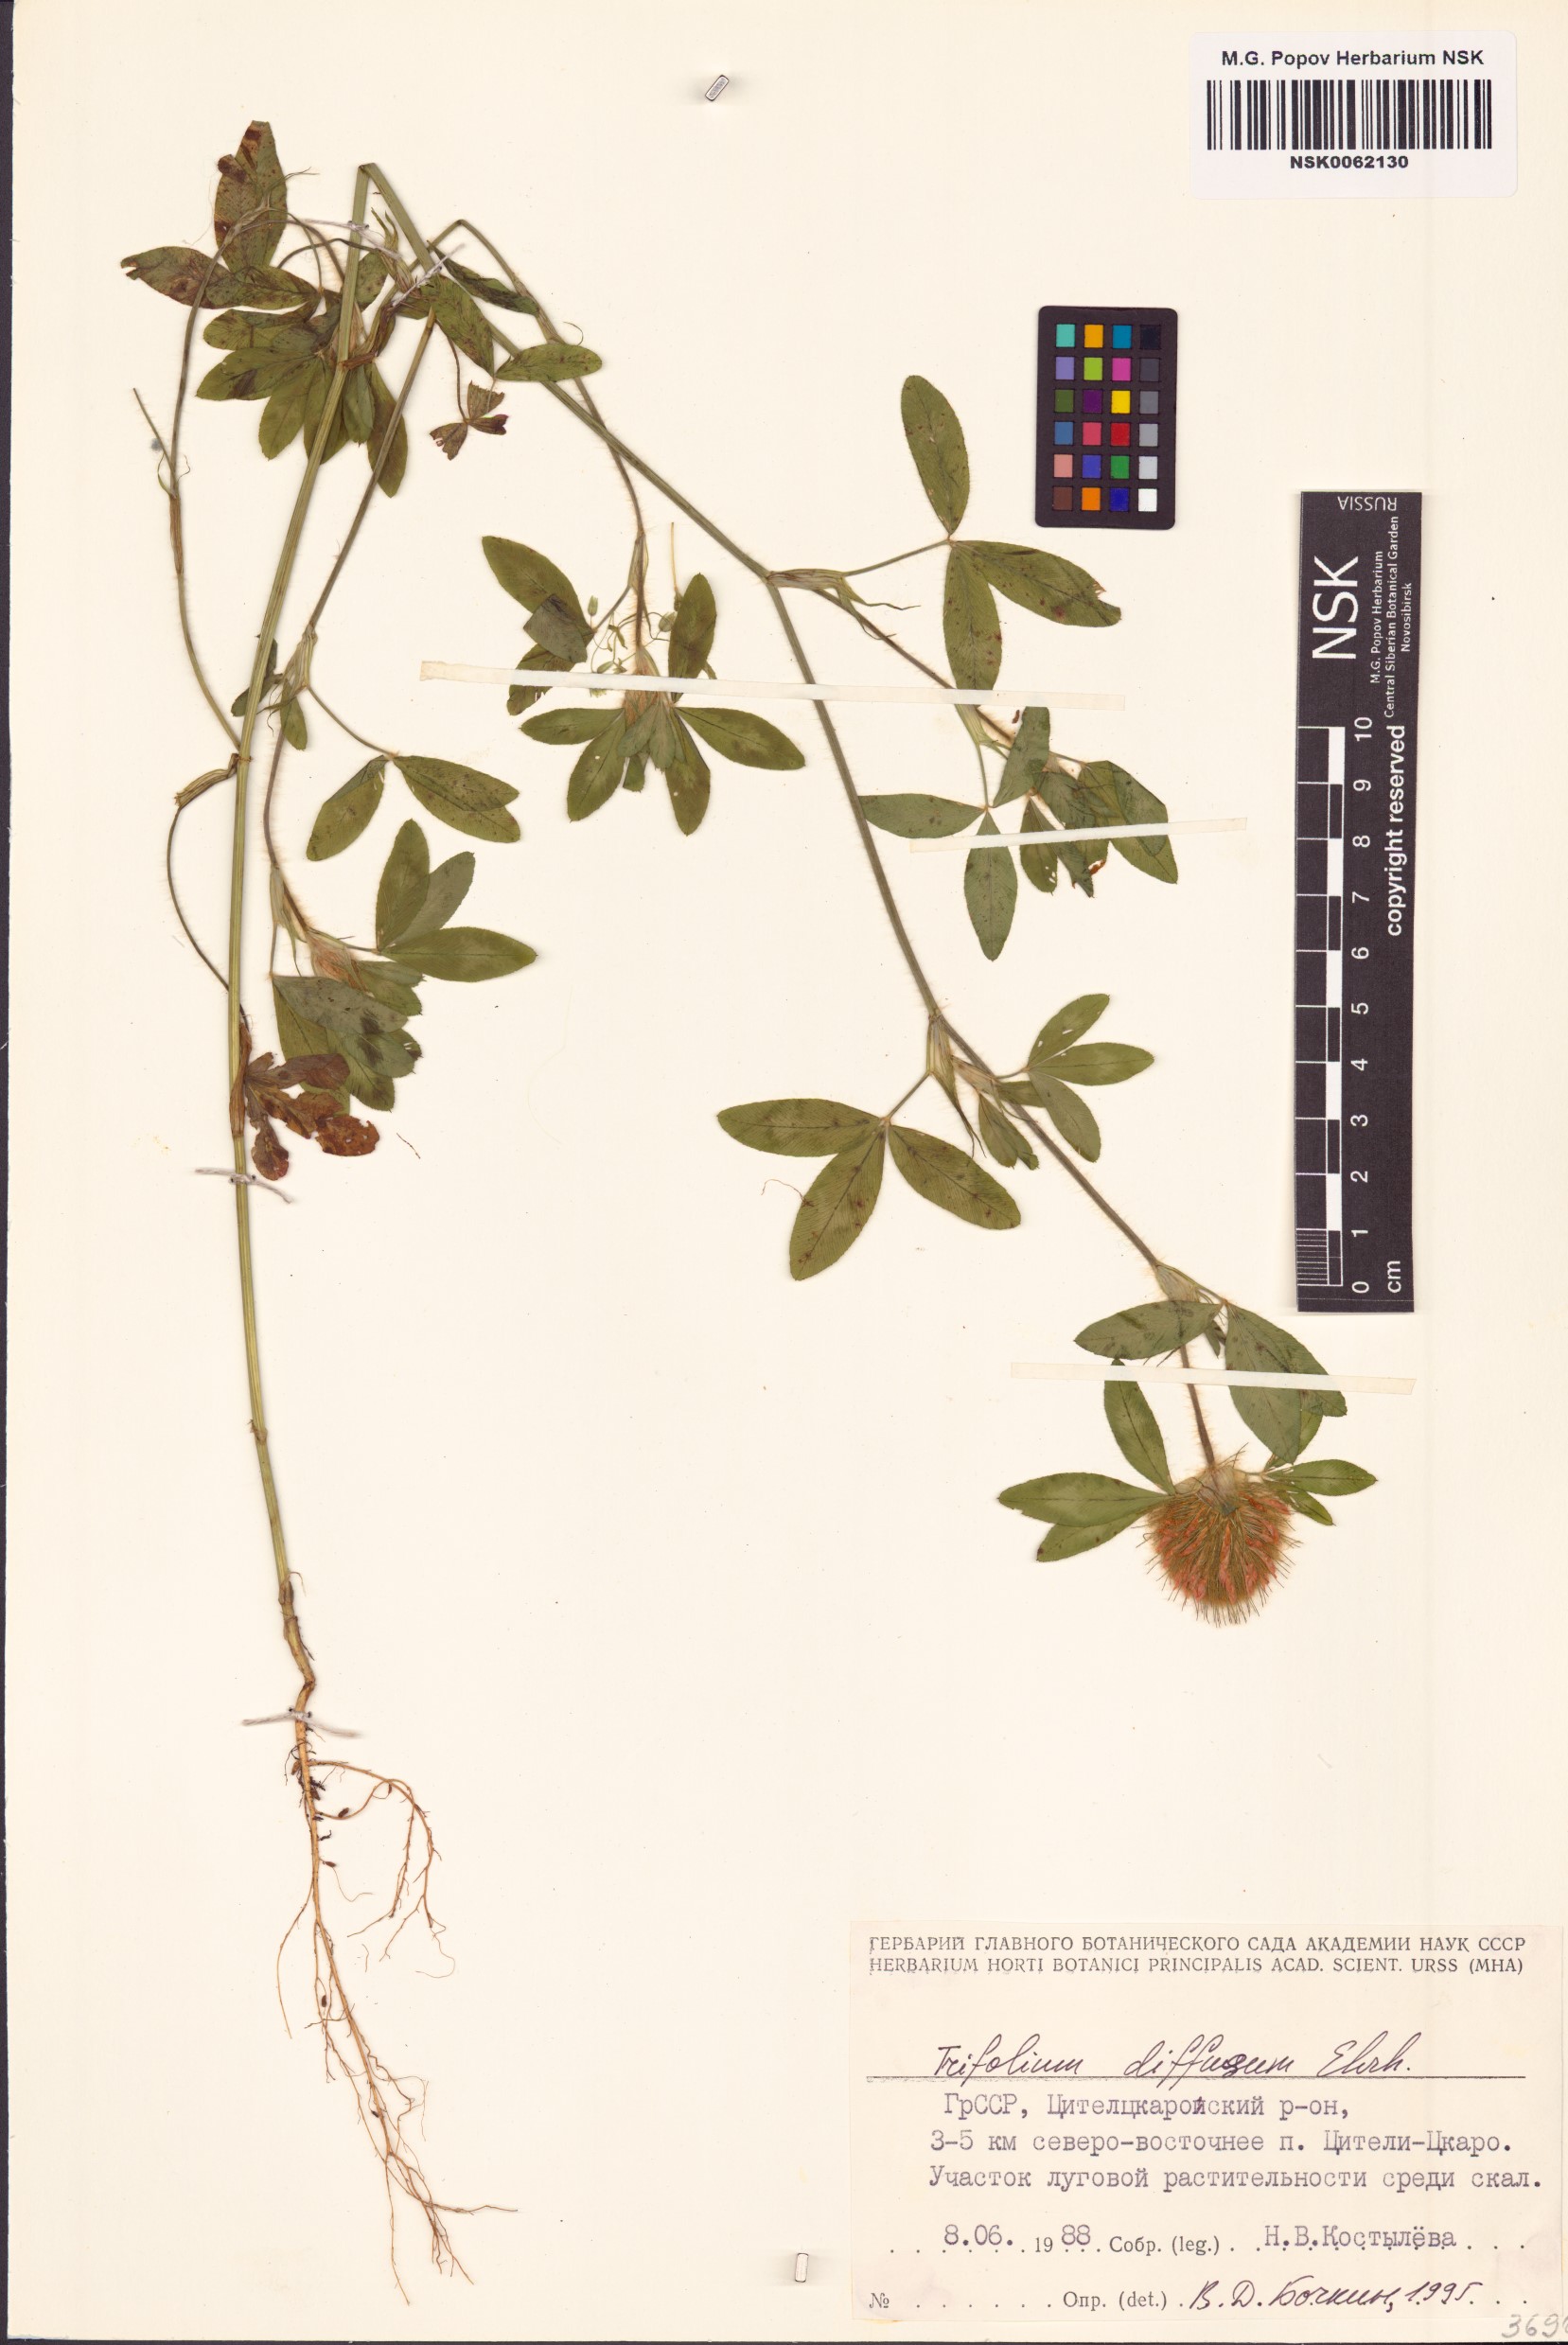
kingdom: Plantae
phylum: Tracheophyta
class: Magnoliopsida
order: Fabales
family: Fabaceae
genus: Trifolium
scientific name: Trifolium diffusum
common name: Diffuse clover
